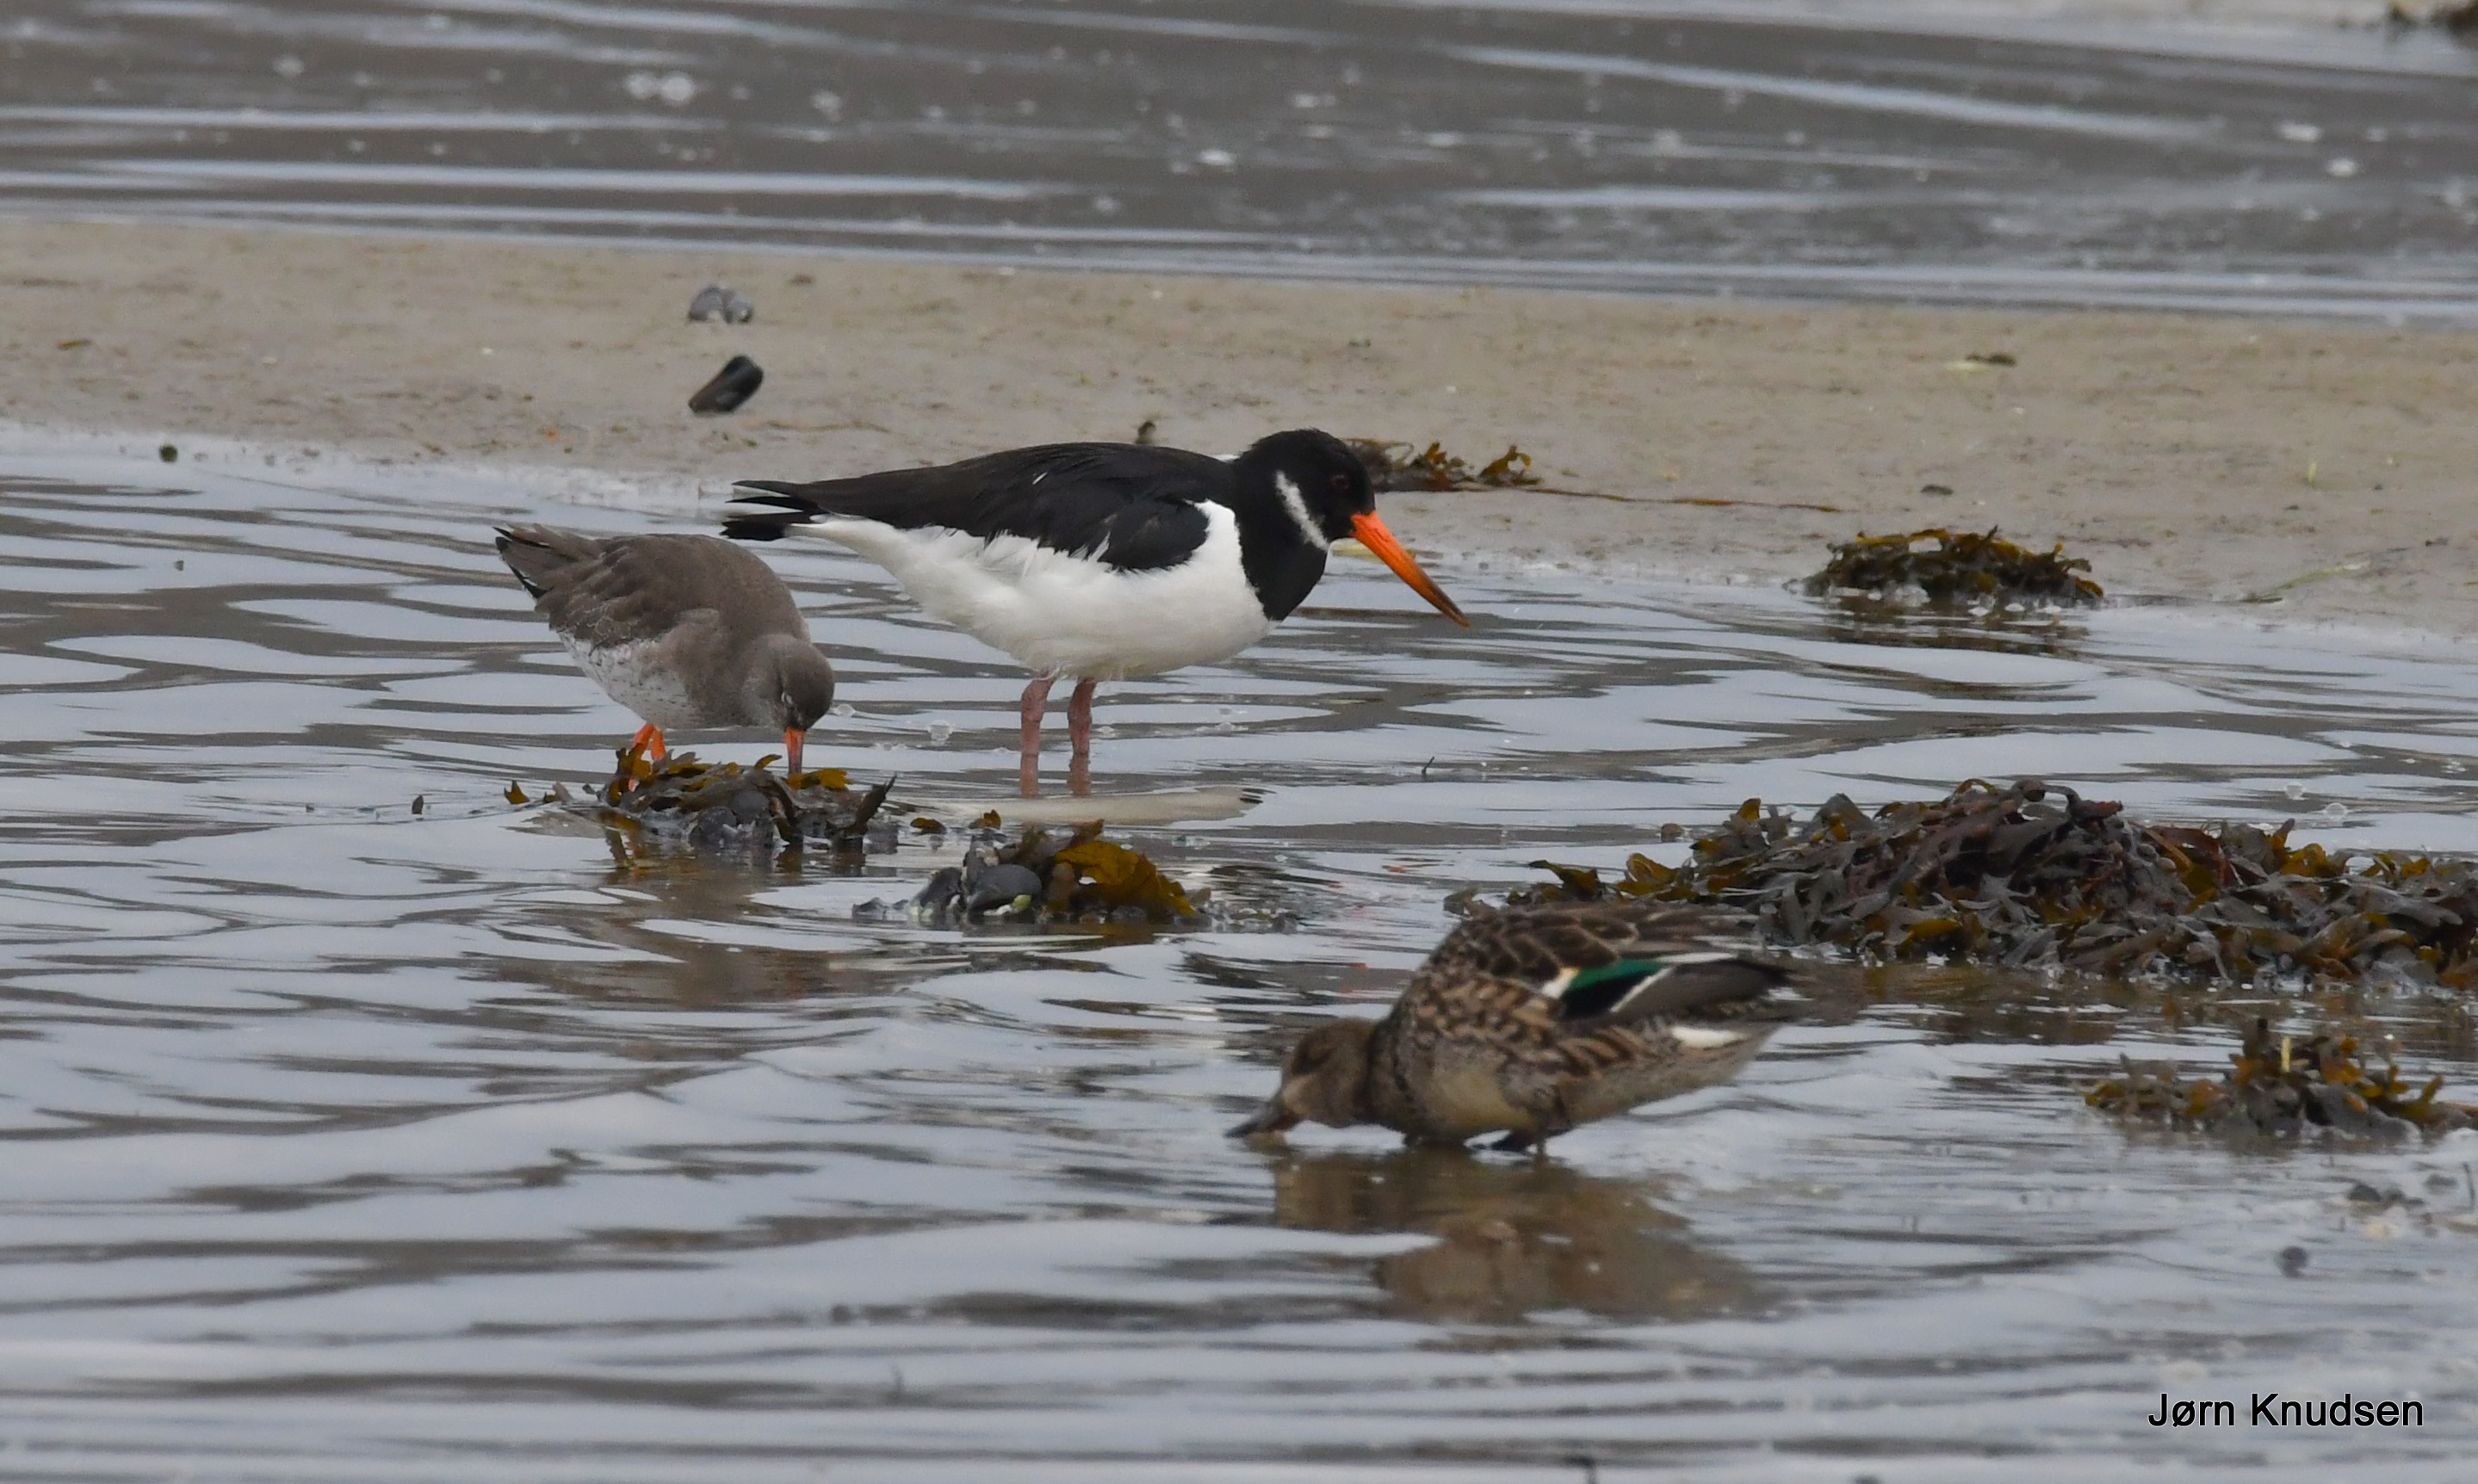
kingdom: Animalia
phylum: Chordata
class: Aves
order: Charadriiformes
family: Scolopacidae
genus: Tringa
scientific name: Tringa totanus
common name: Rødben
